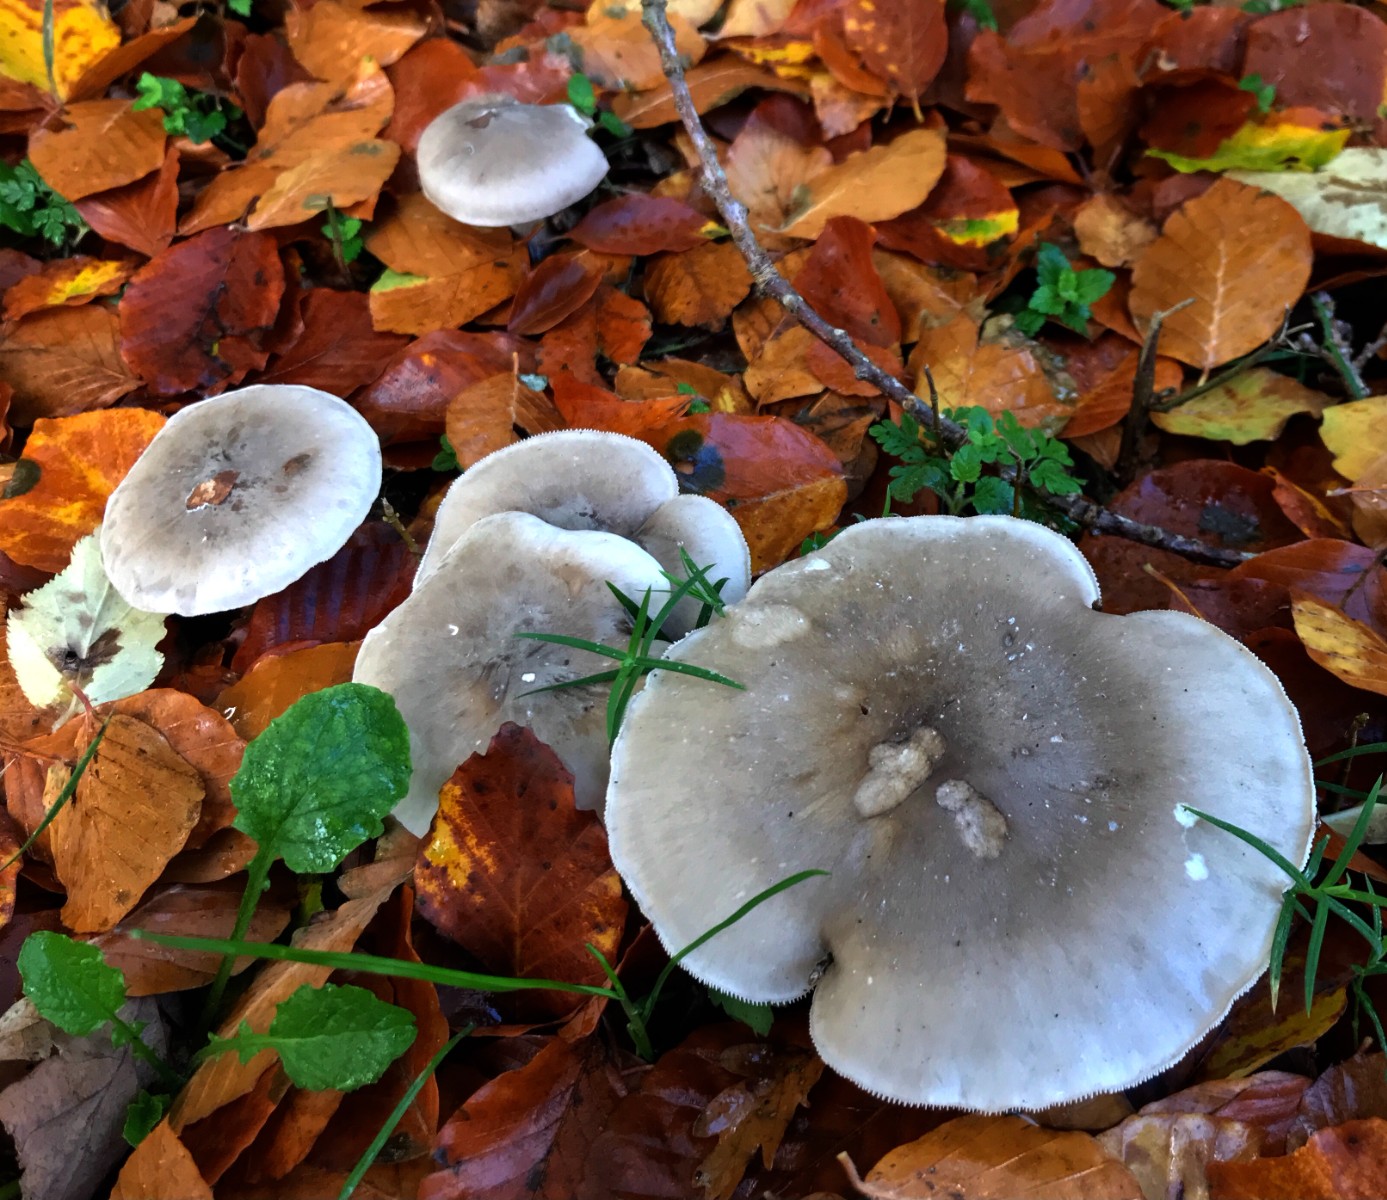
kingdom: Fungi
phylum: Basidiomycota
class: Agaricomycetes
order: Agaricales
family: Tricholomataceae
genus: Clitocybe
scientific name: Clitocybe nebularis
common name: tåge-tragthat
